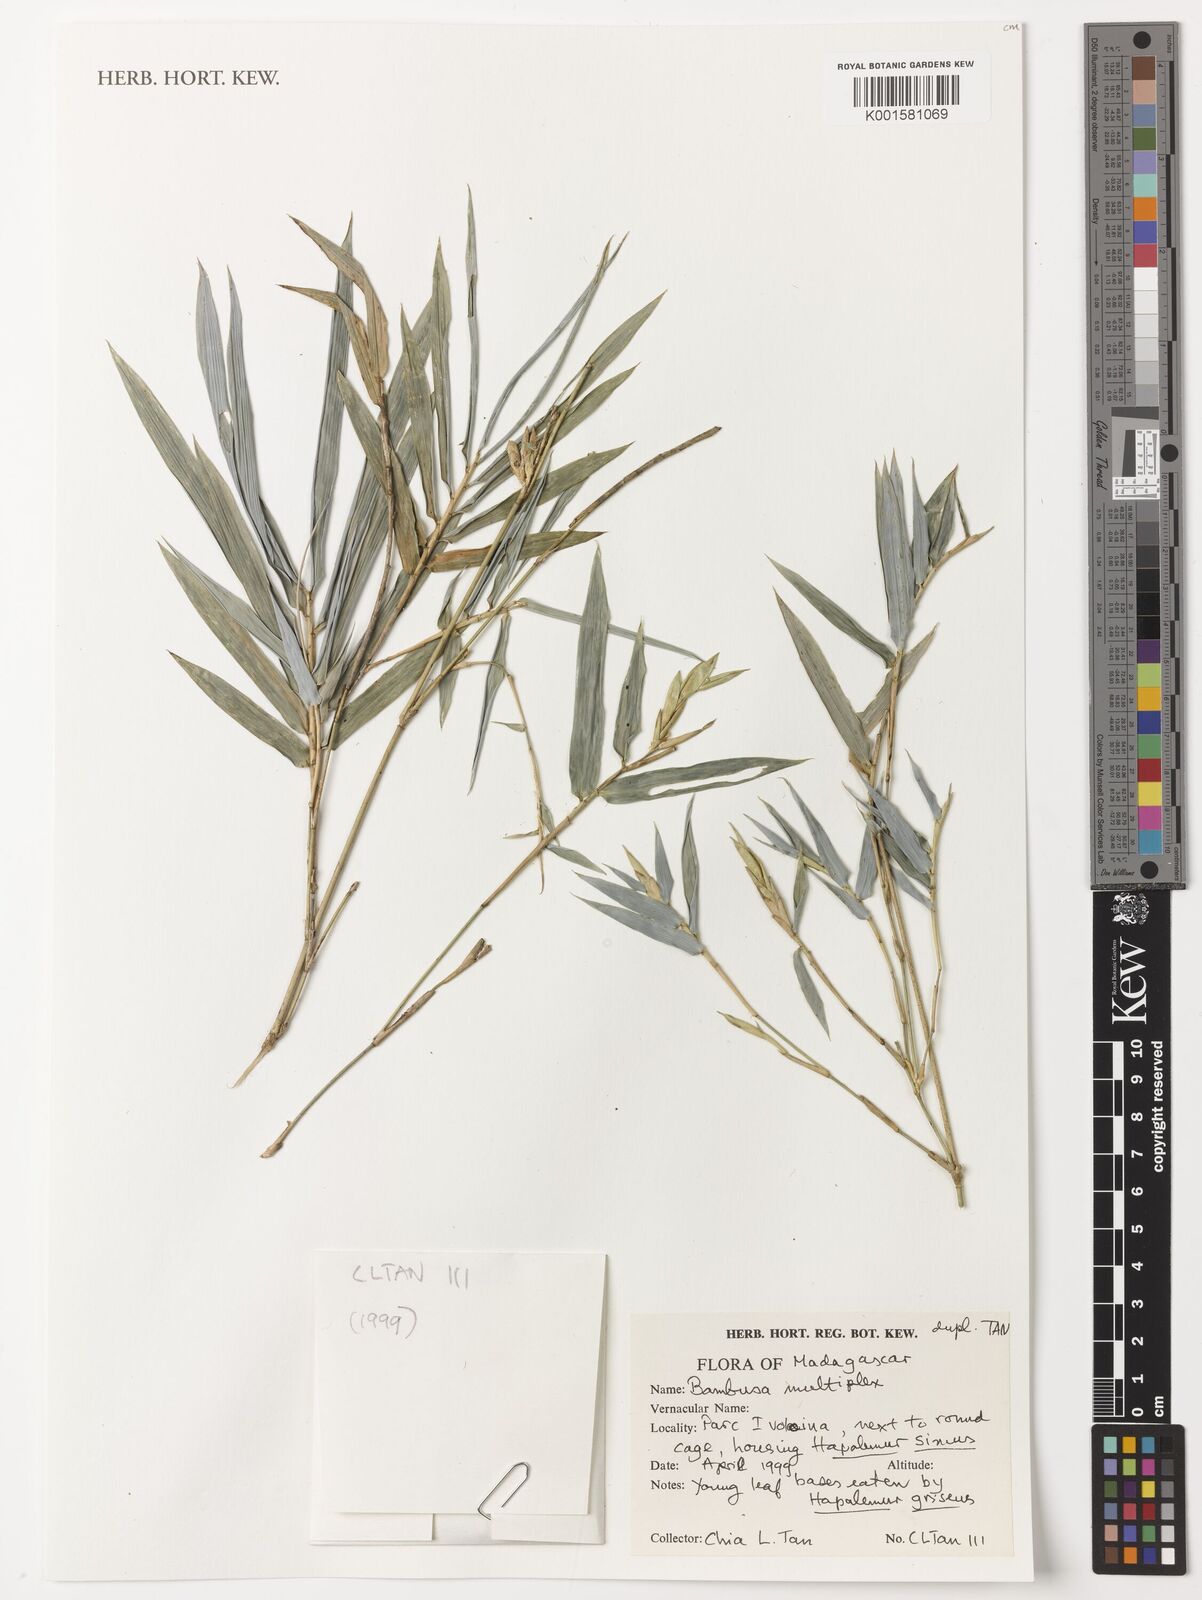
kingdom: Plantae
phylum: Tracheophyta
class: Liliopsida
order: Poales
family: Poaceae
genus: Bambusa
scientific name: Bambusa multiplex
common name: Hedge bamboo
